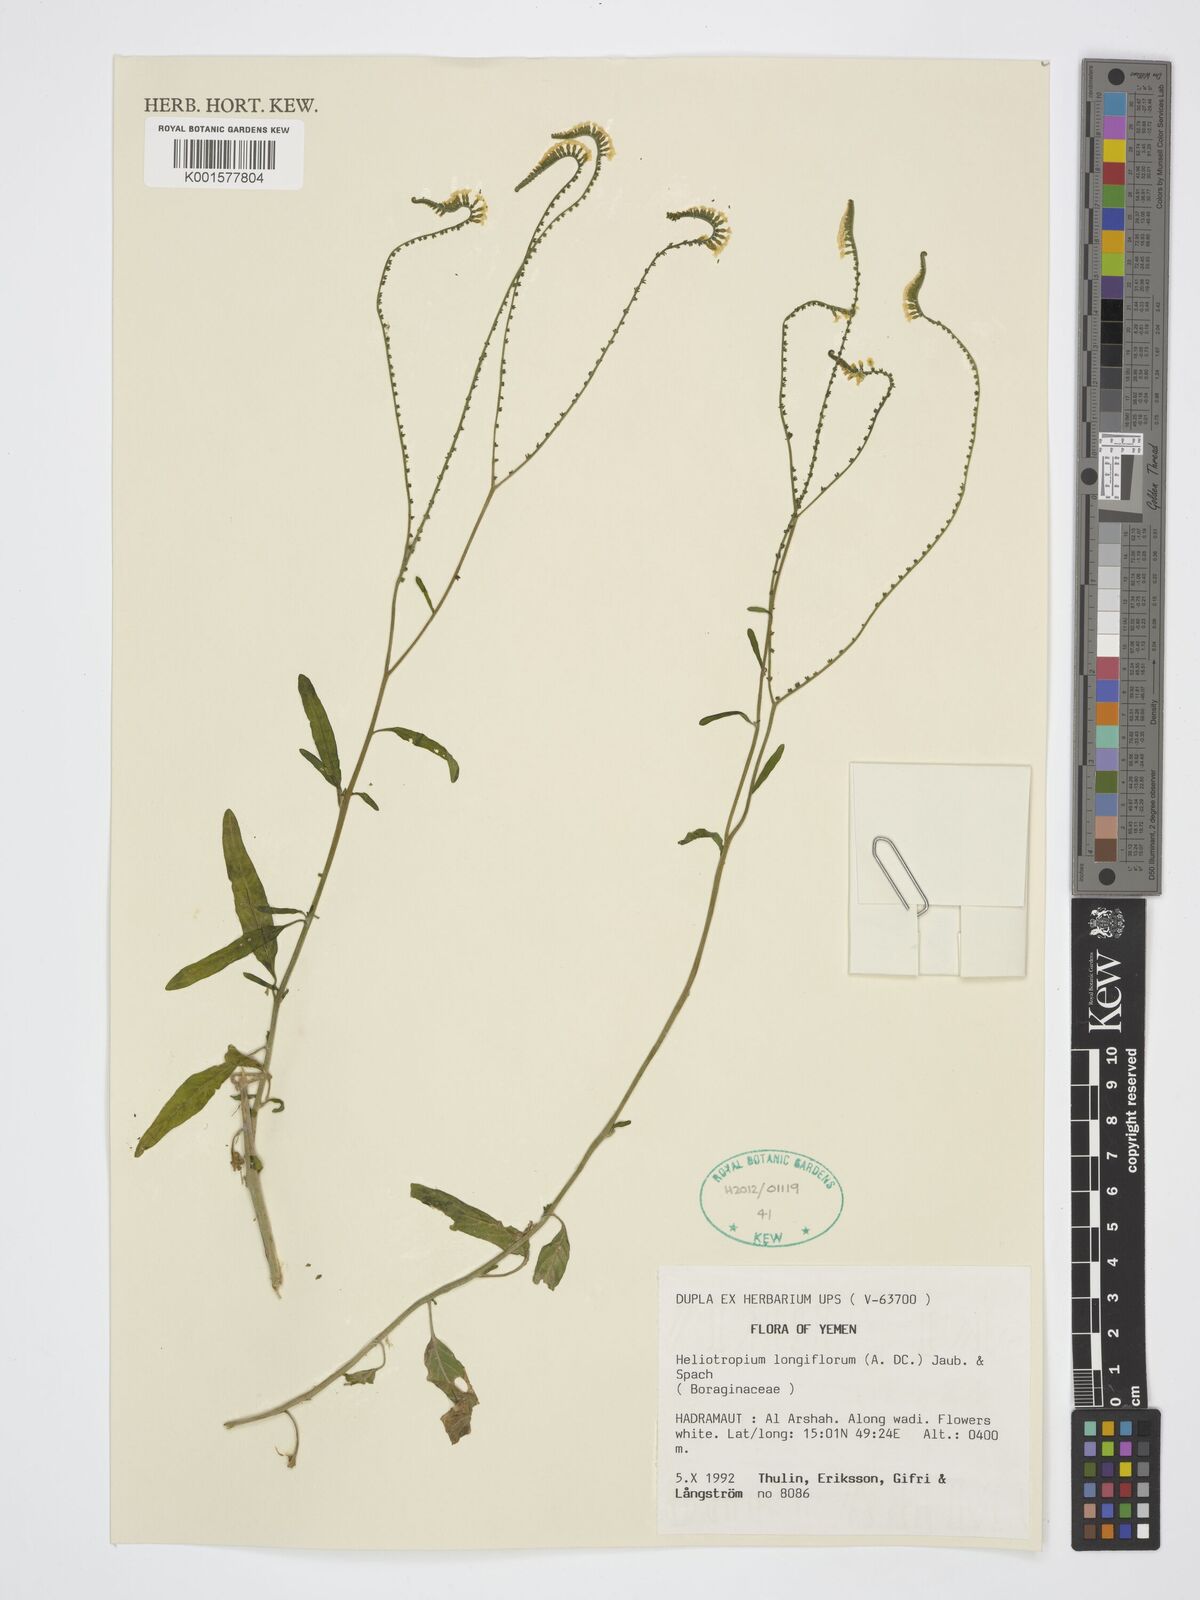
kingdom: Plantae
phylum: Tracheophyta
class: Magnoliopsida
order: Boraginales
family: Heliotropiaceae
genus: Heliotropium
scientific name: Heliotropium longiflorum
